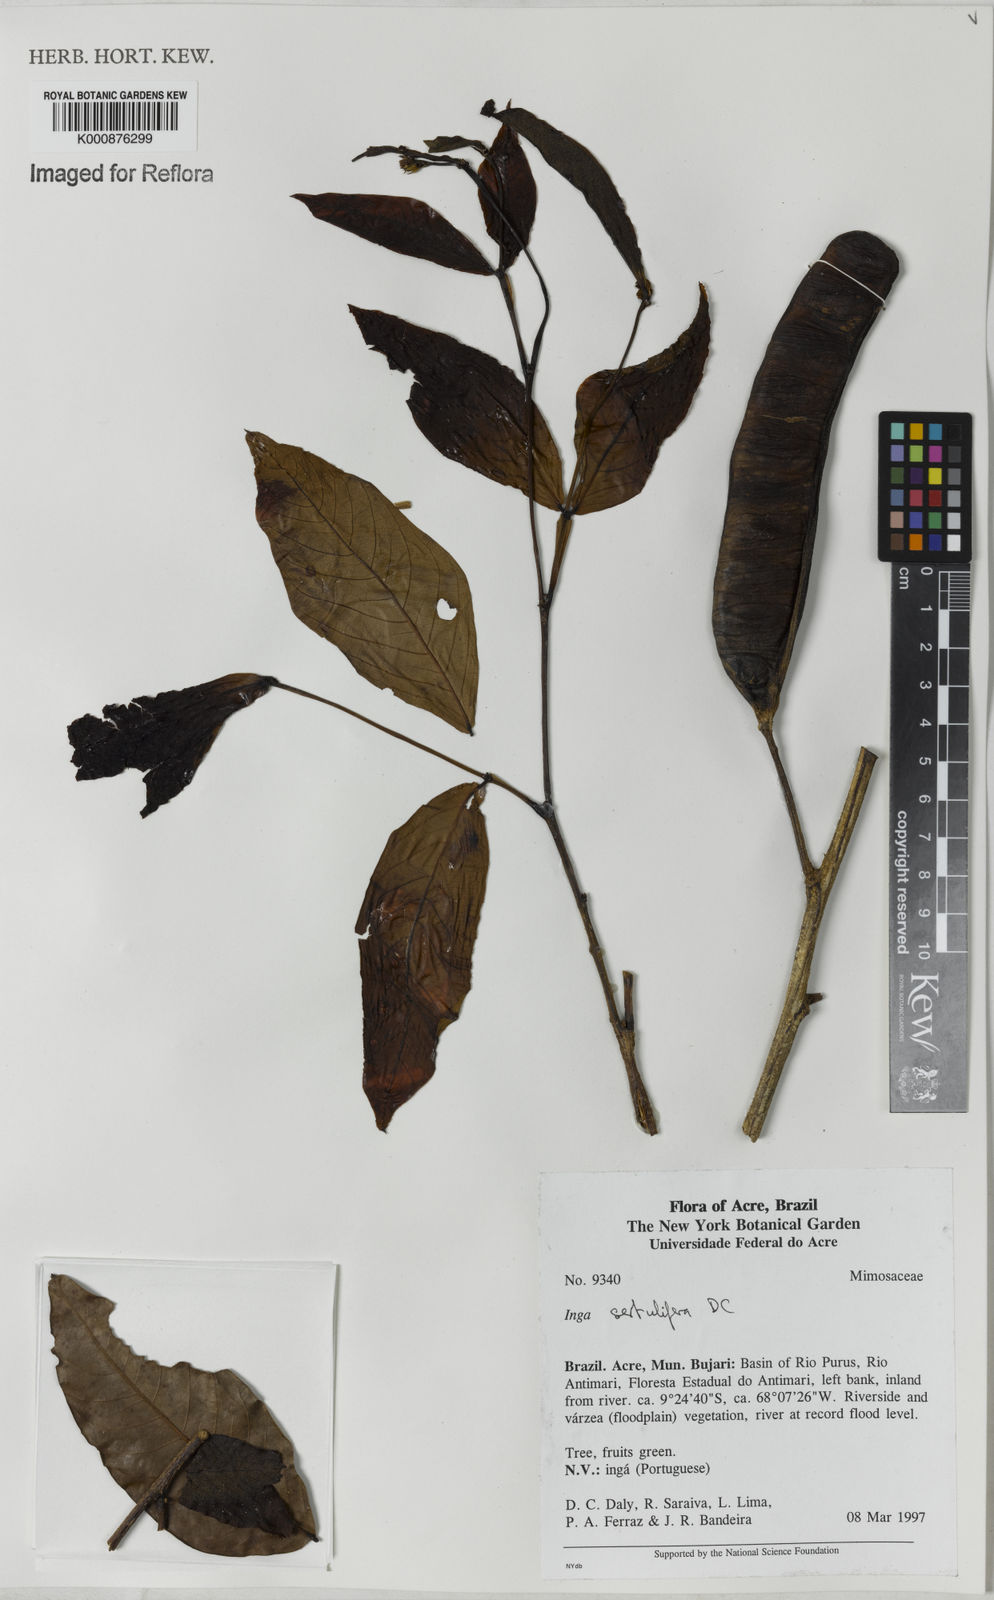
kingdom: Plantae
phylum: Tracheophyta
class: Magnoliopsida
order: Fabales
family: Fabaceae
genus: Inga
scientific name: Inga sertulifera
